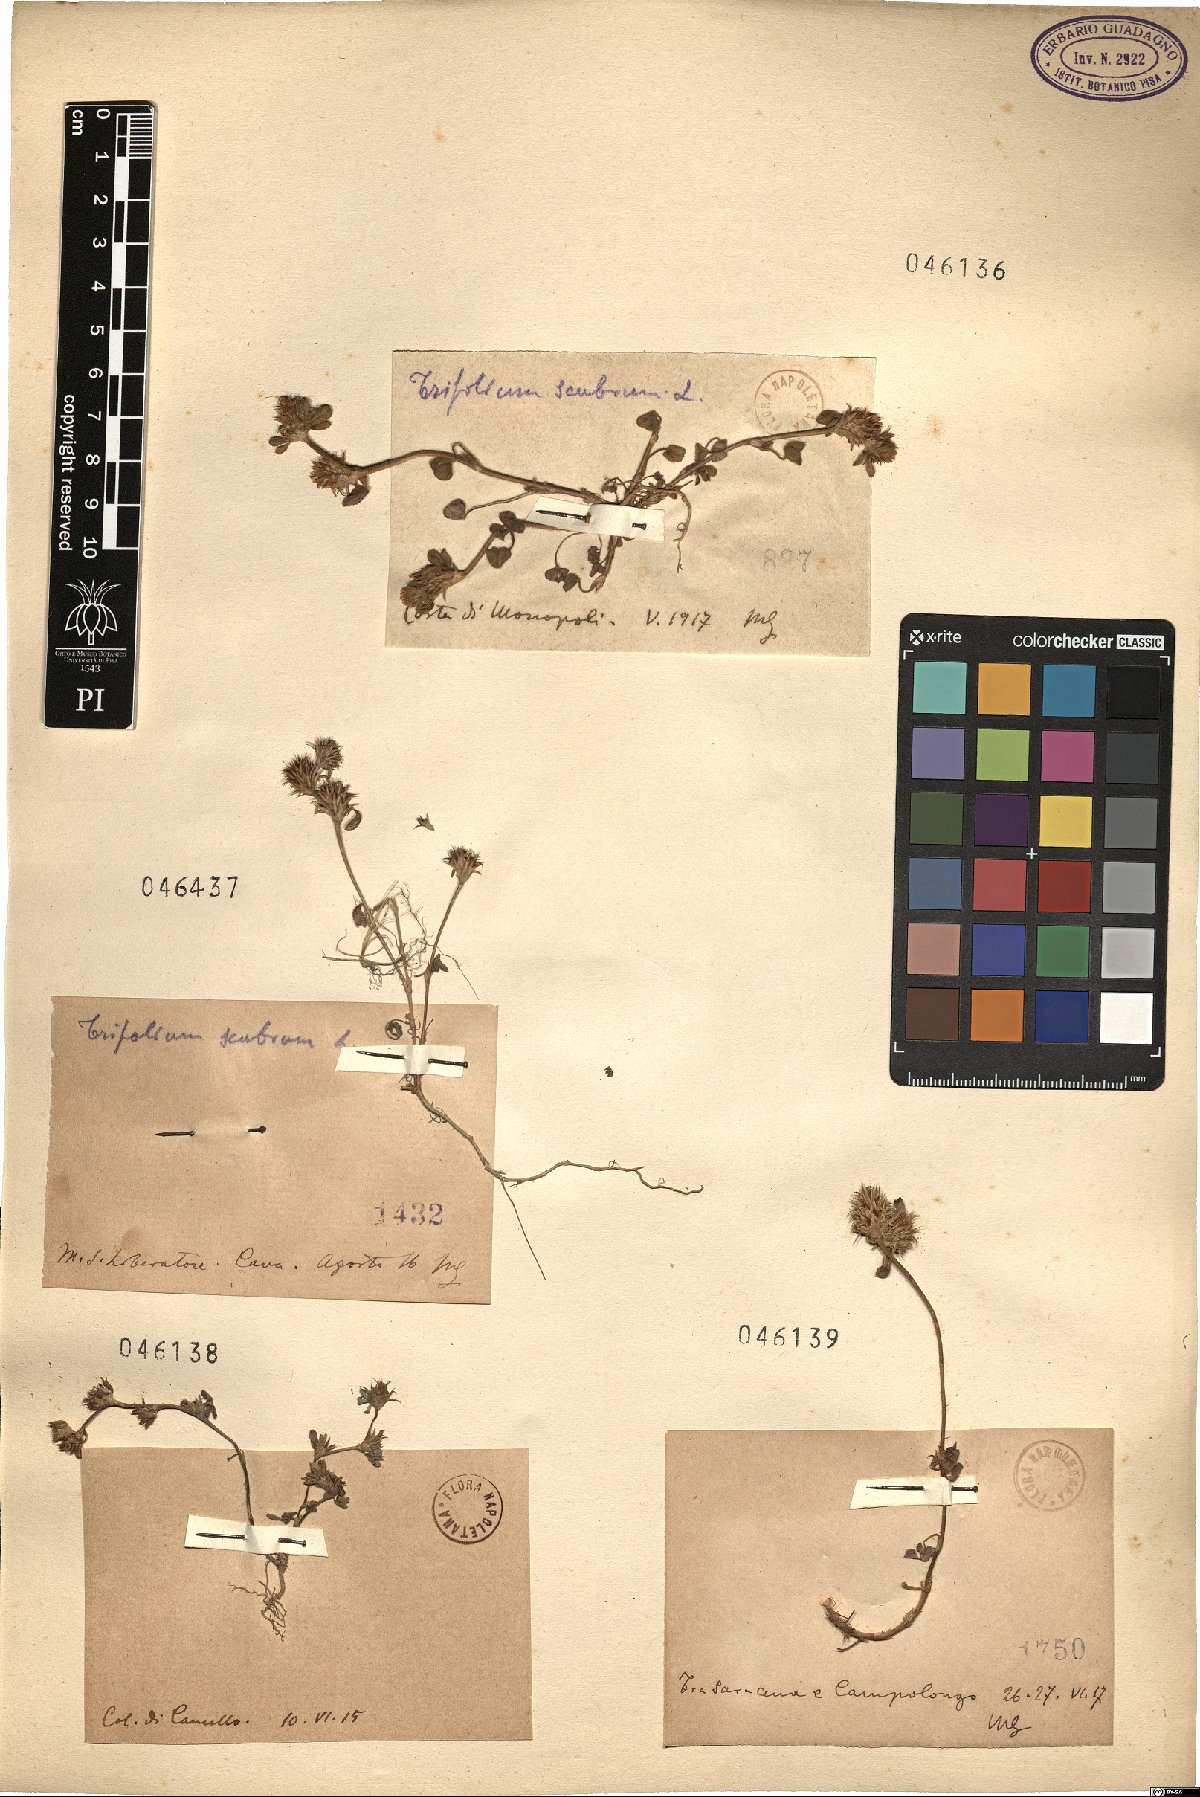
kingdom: Plantae
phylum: Tracheophyta
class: Magnoliopsida
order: Fabales
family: Fabaceae
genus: Trifolium
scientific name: Trifolium scabrum
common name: Rough clover
